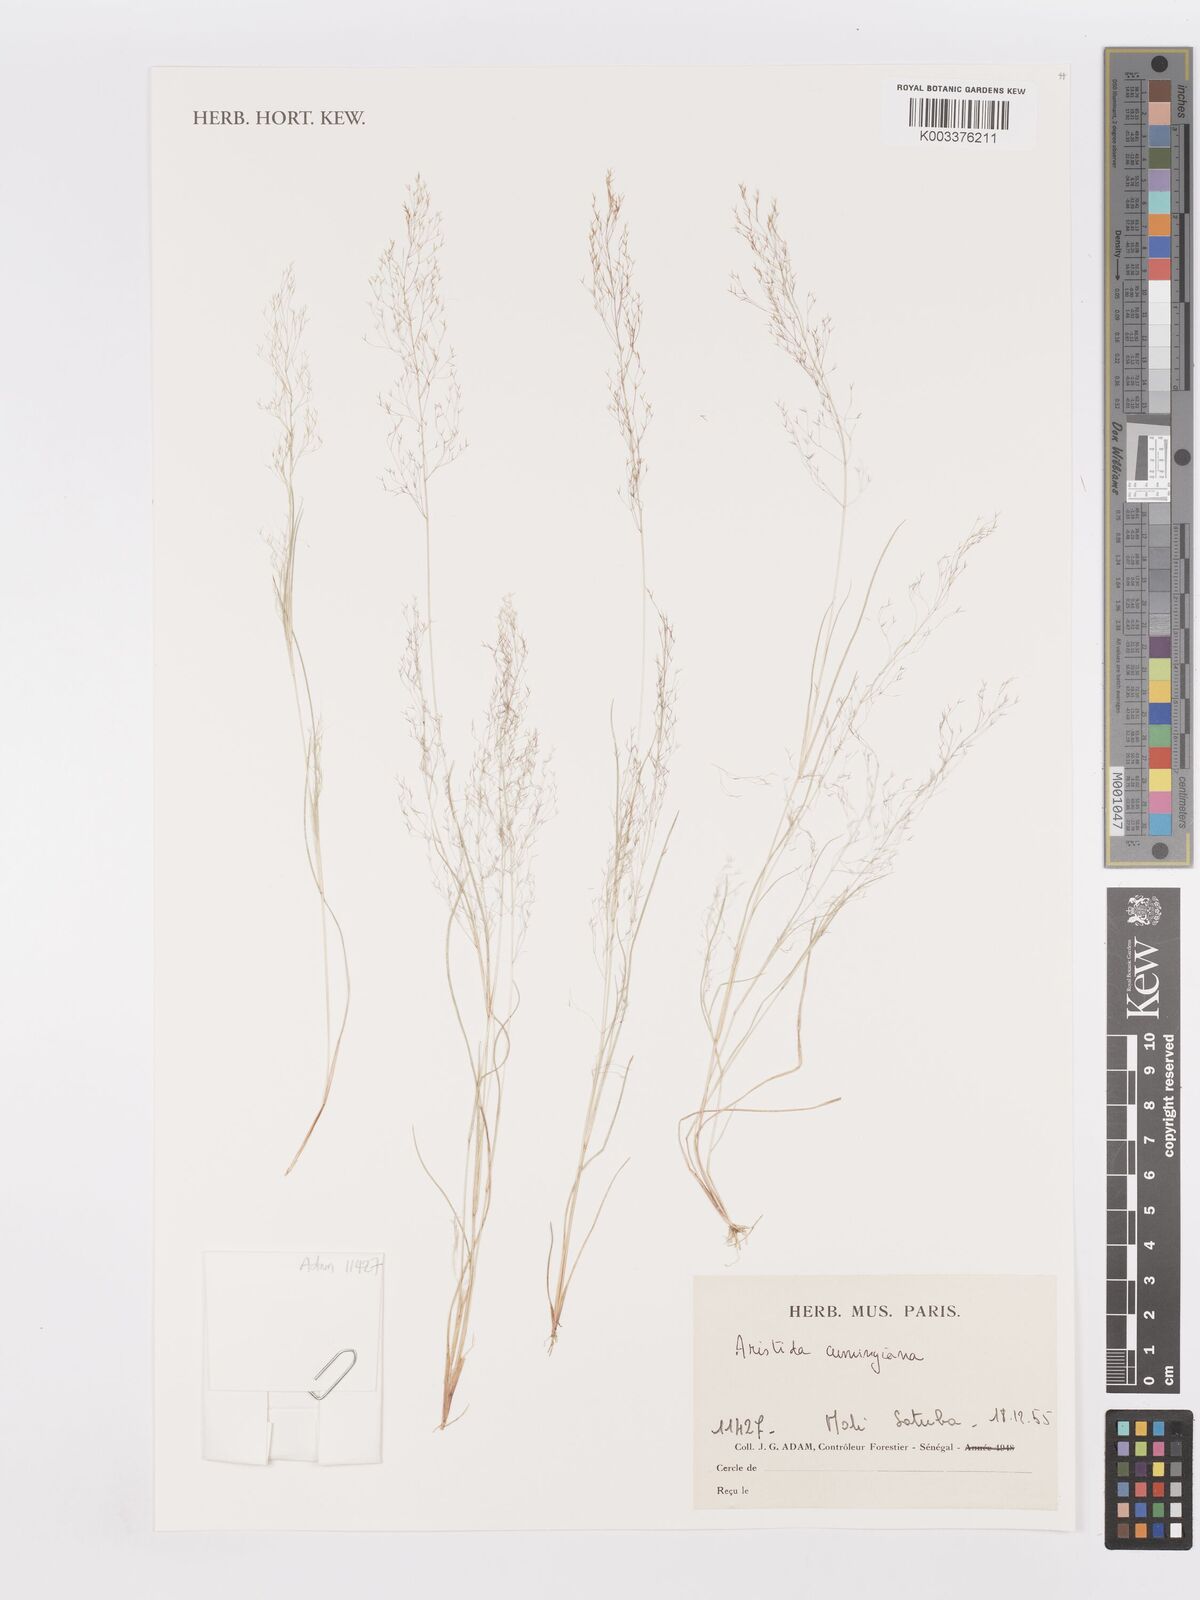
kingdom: Plantae
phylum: Tracheophyta
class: Liliopsida
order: Poales
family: Poaceae
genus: Aristida
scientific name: Aristida cumingiana
